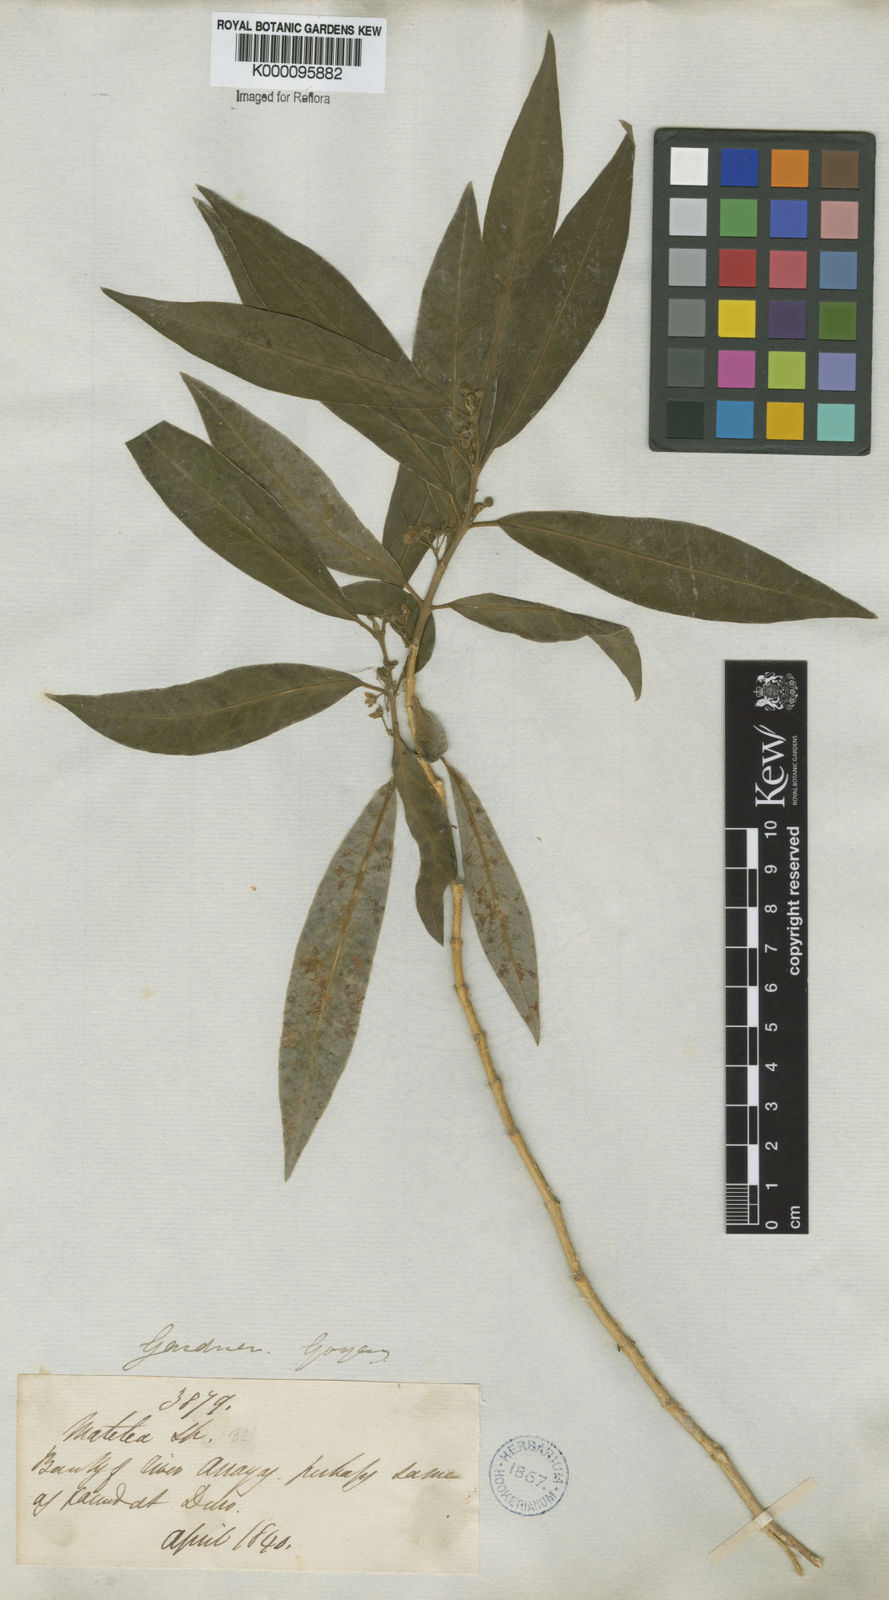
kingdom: Plantae
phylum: Tracheophyta
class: Magnoliopsida
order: Gentianales
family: Apocynaceae
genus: Matelea
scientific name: Matelea pedalis
